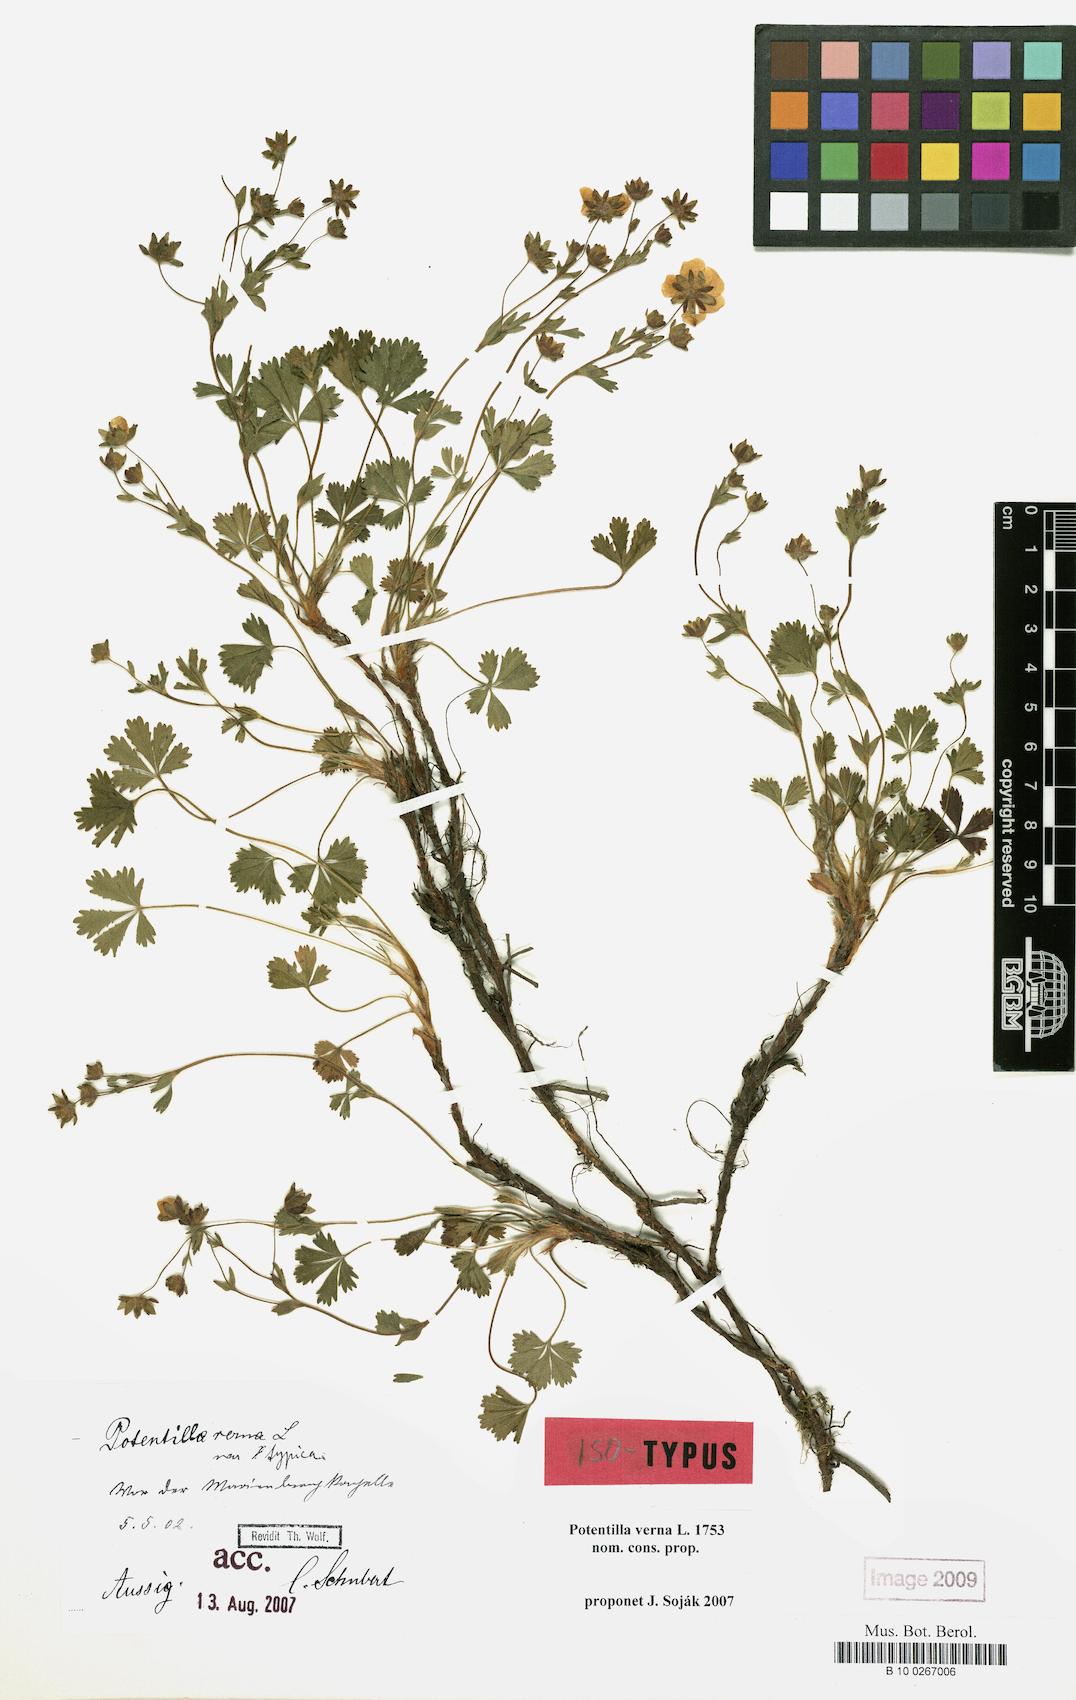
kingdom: Plantae
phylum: Tracheophyta
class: Magnoliopsida
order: Rosales
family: Rosaceae
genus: Potentilla
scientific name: Potentilla verna
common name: Spring cinquefoil
